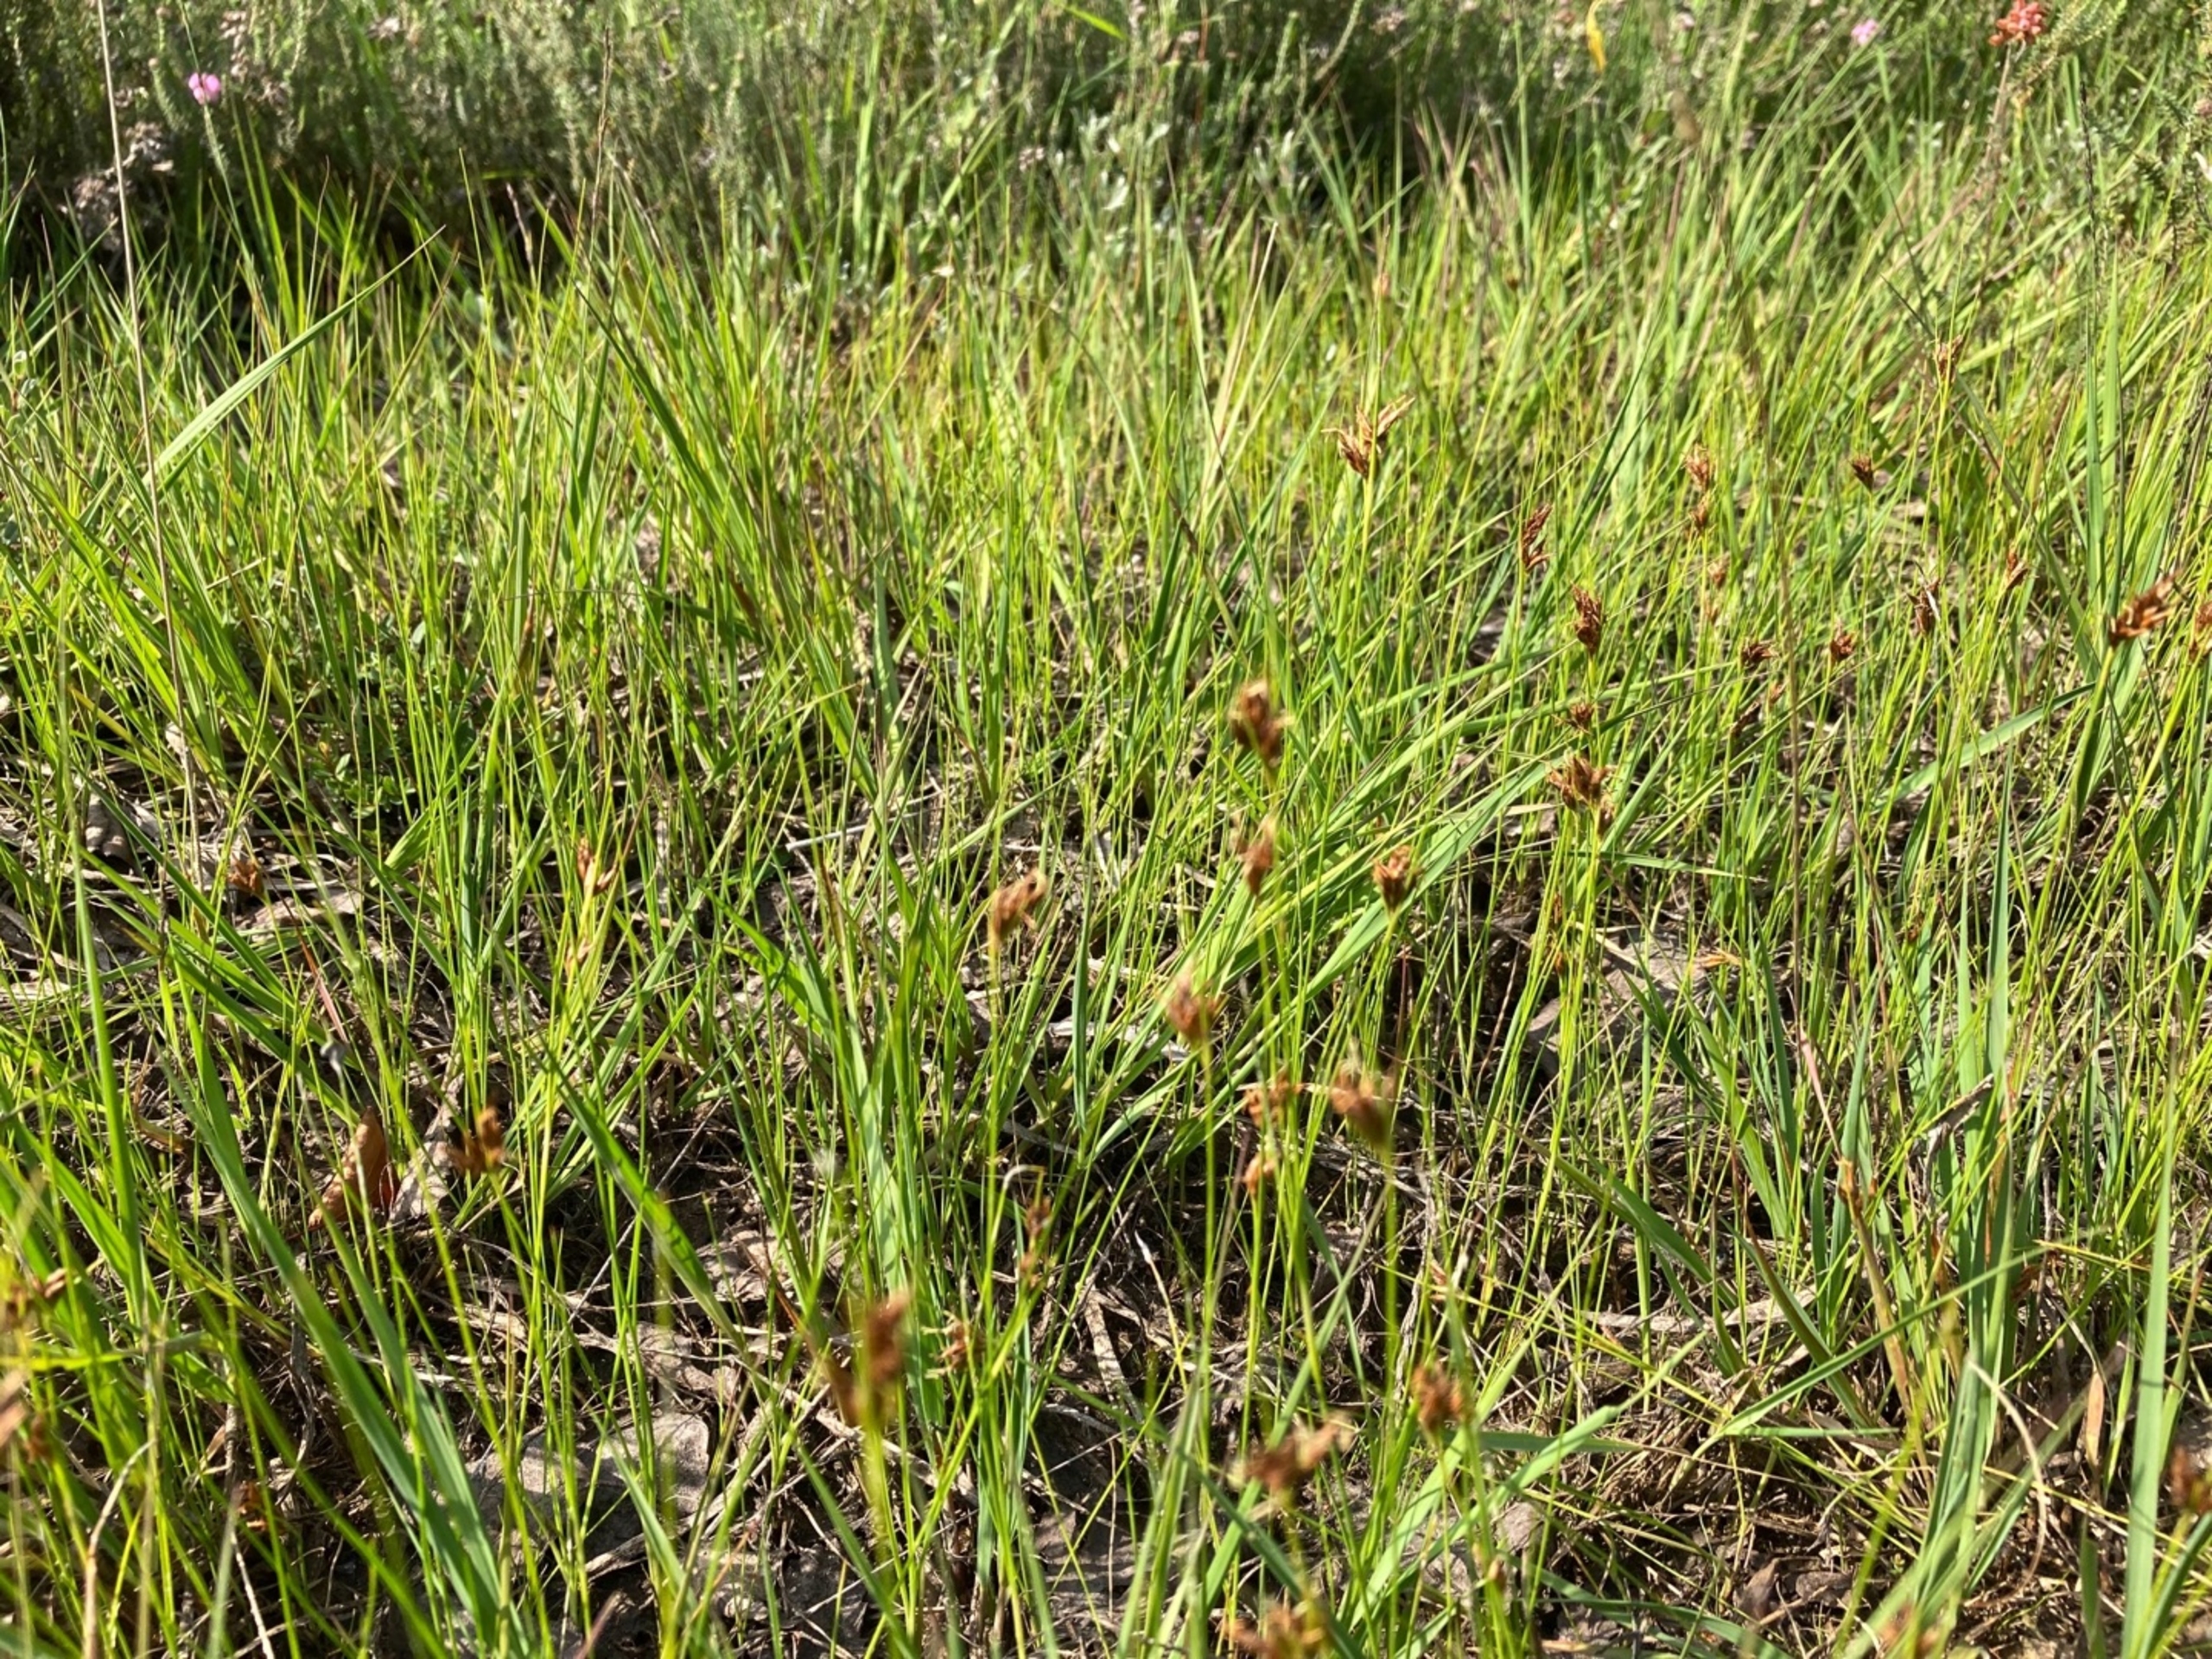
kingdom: Plantae
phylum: Tracheophyta
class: Liliopsida
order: Poales
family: Cyperaceae
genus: Rhynchospora
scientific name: Rhynchospora fusca
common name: Brun næbfrø
